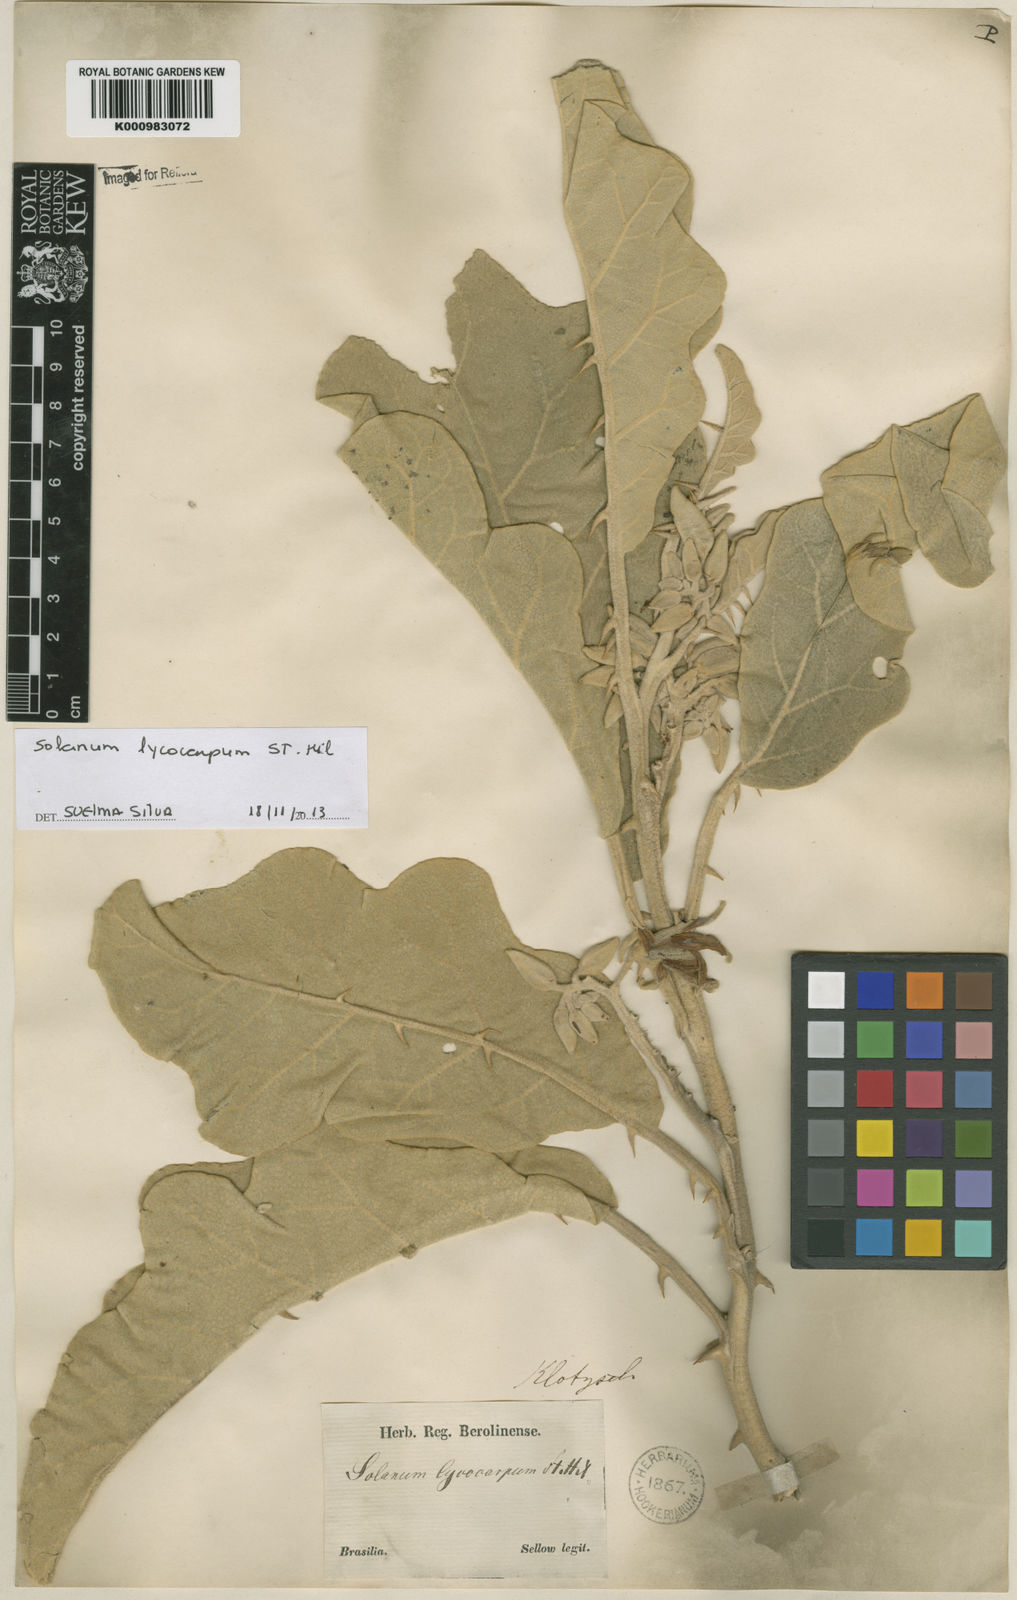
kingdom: Plantae
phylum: Tracheophyta
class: Magnoliopsida
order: Solanales
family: Solanaceae
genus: Solanum
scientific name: Solanum lycocarpum
